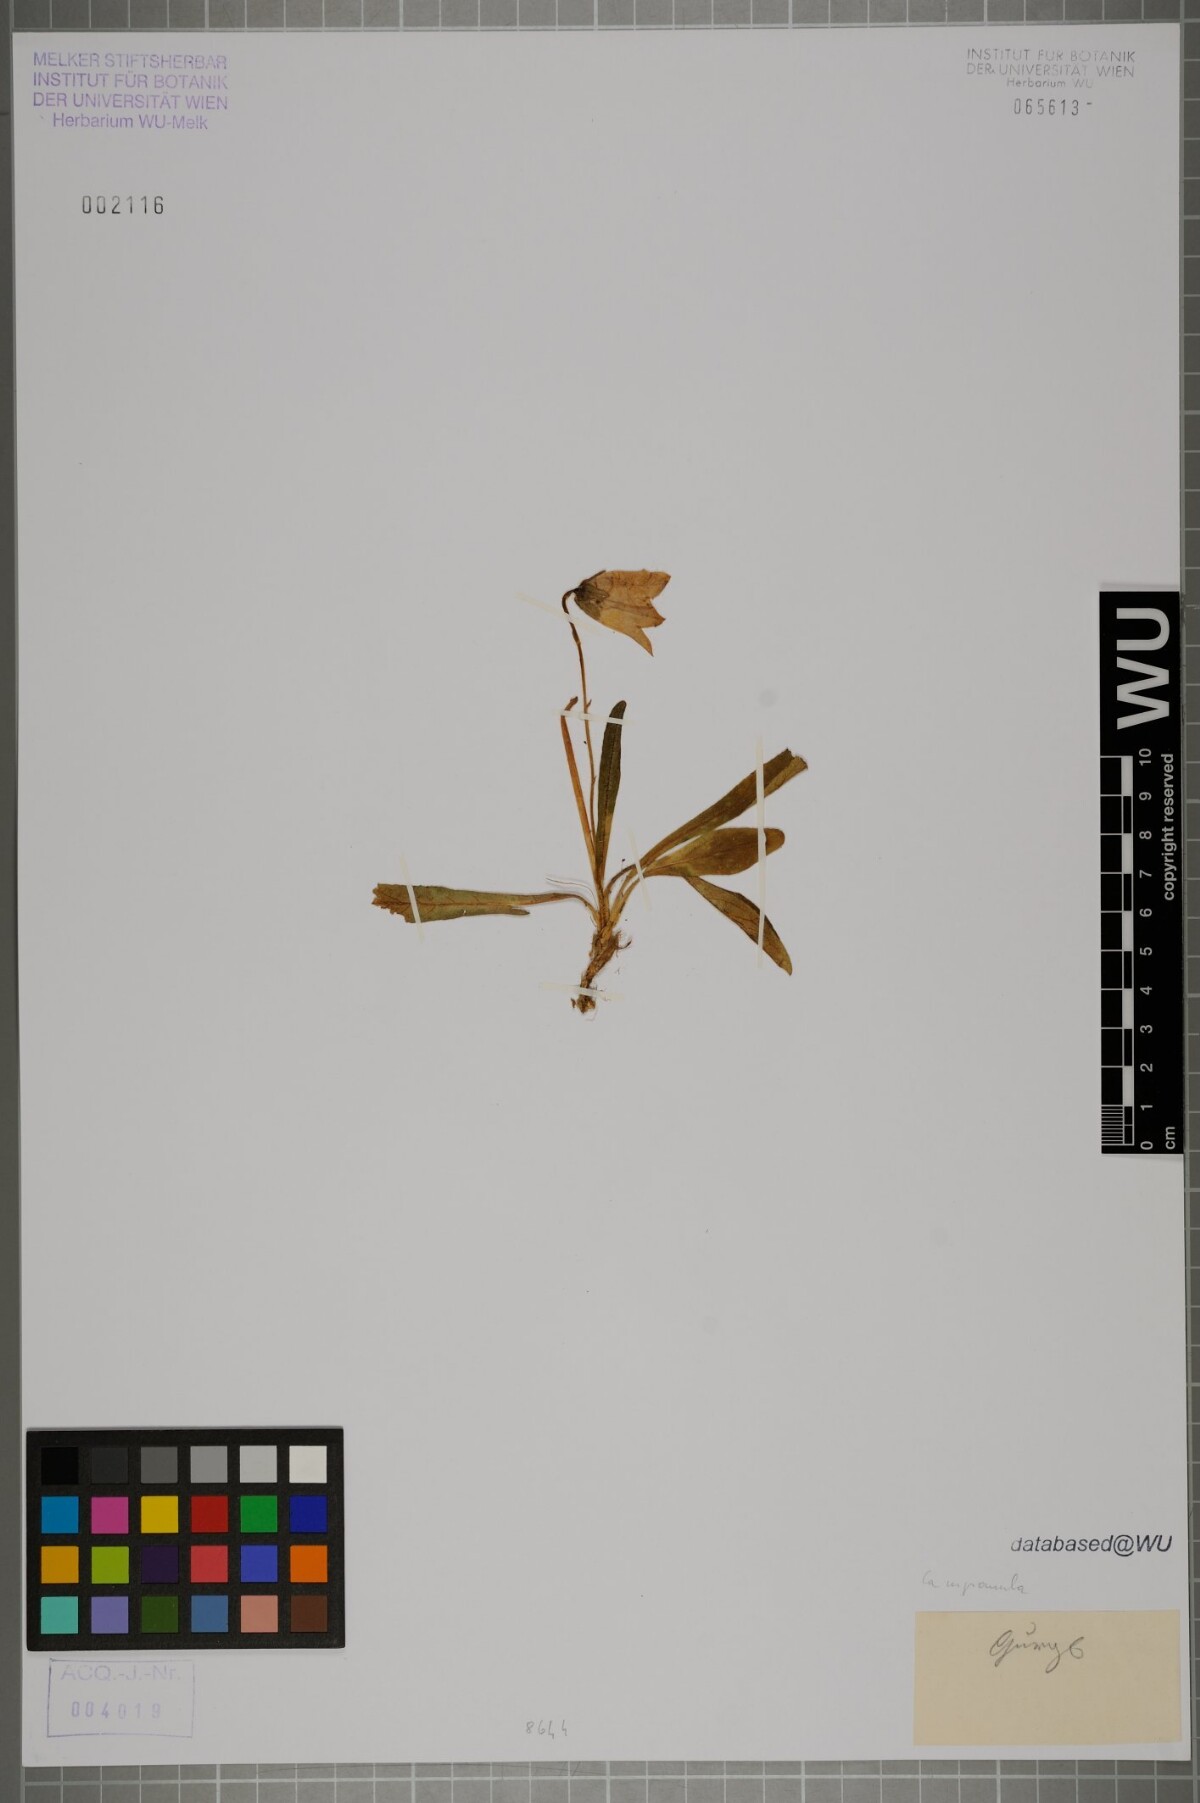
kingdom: Plantae
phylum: Tracheophyta
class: Magnoliopsida
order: Asterales
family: Campanulaceae
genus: Campanula
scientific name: Campanula
